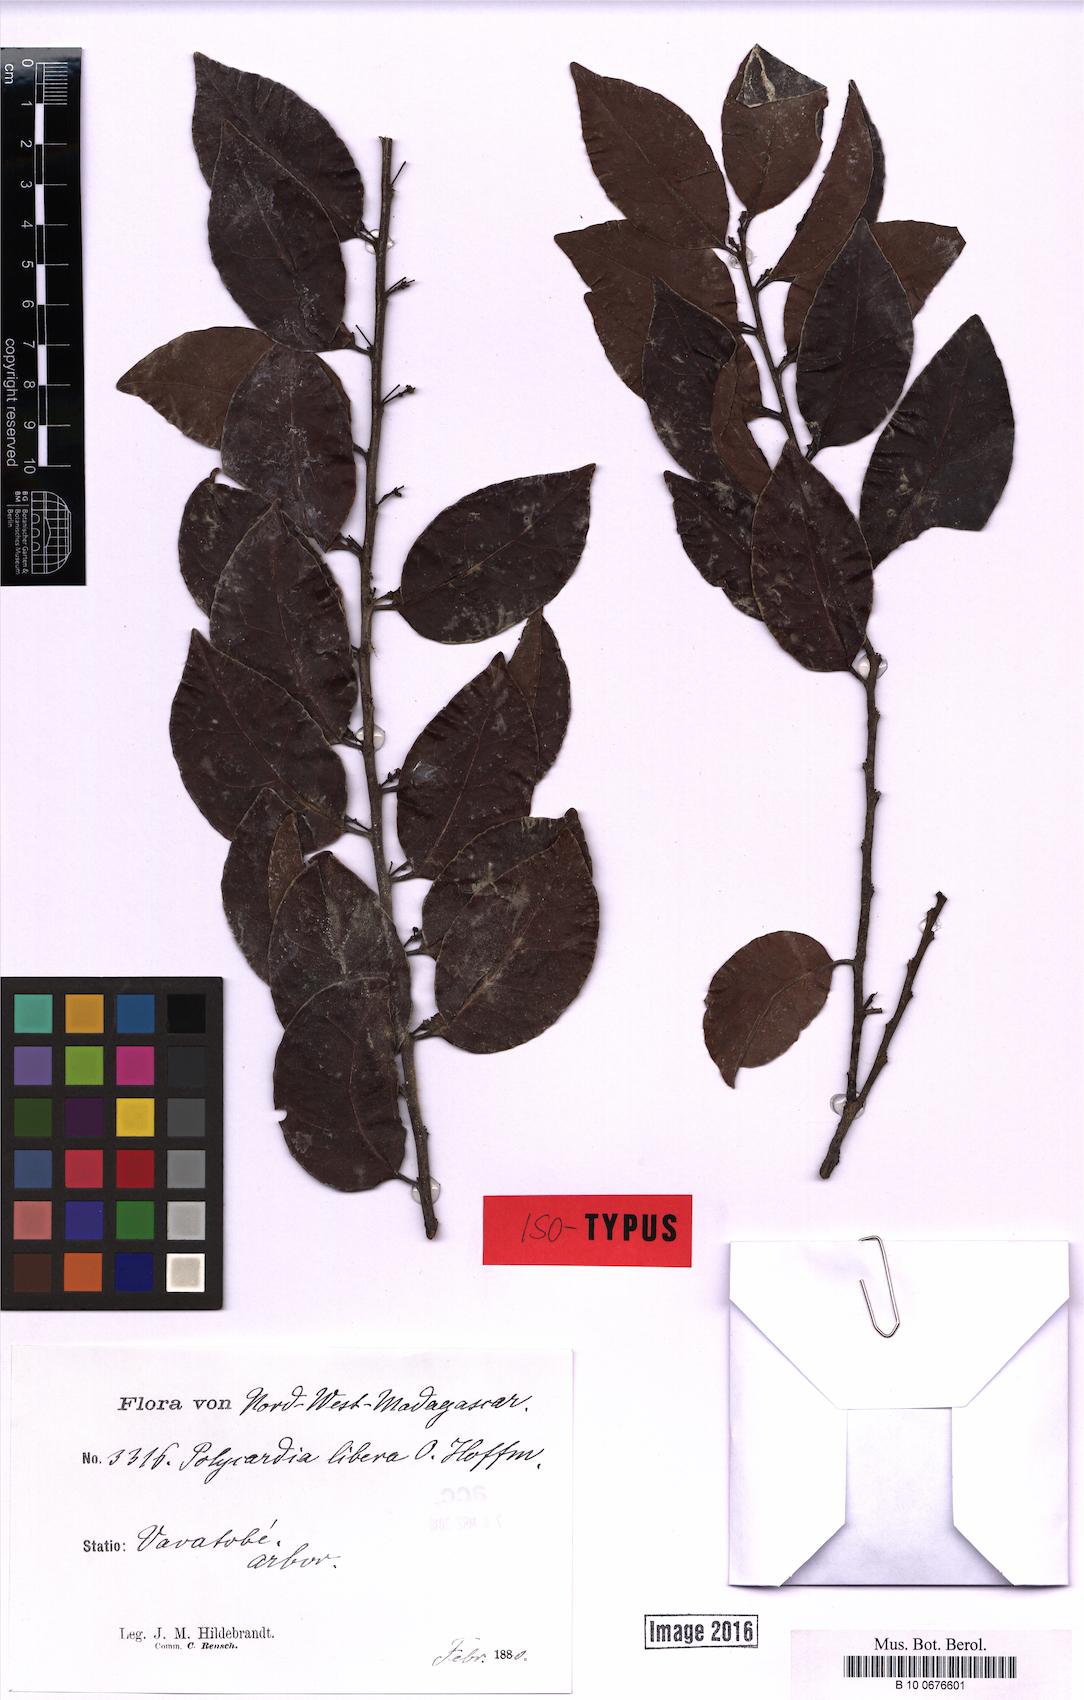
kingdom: Plantae
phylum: Tracheophyta
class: Magnoliopsida
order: Celastrales
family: Celastraceae
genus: Polycardia
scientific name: Polycardia libera
